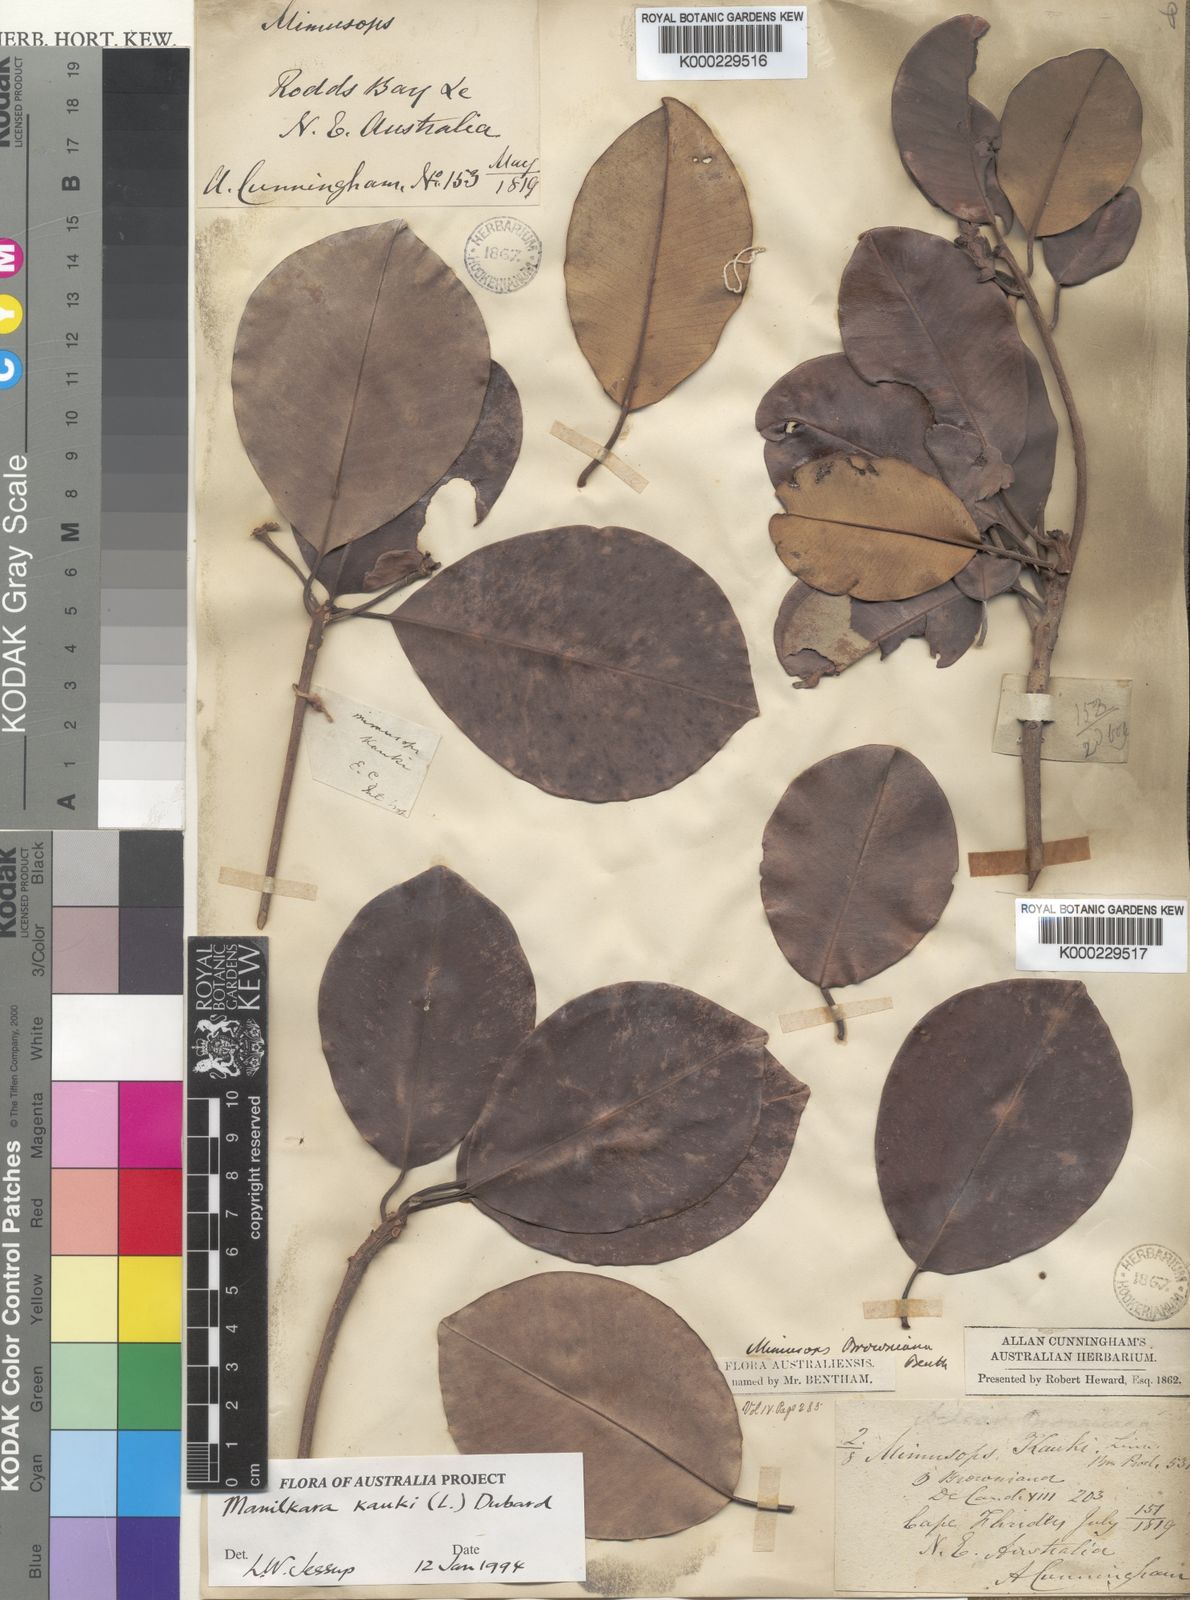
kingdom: Plantae
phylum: Tracheophyta
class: Magnoliopsida
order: Ericales
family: Sapotaceae
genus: Manilkara
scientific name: Manilkara kauki
